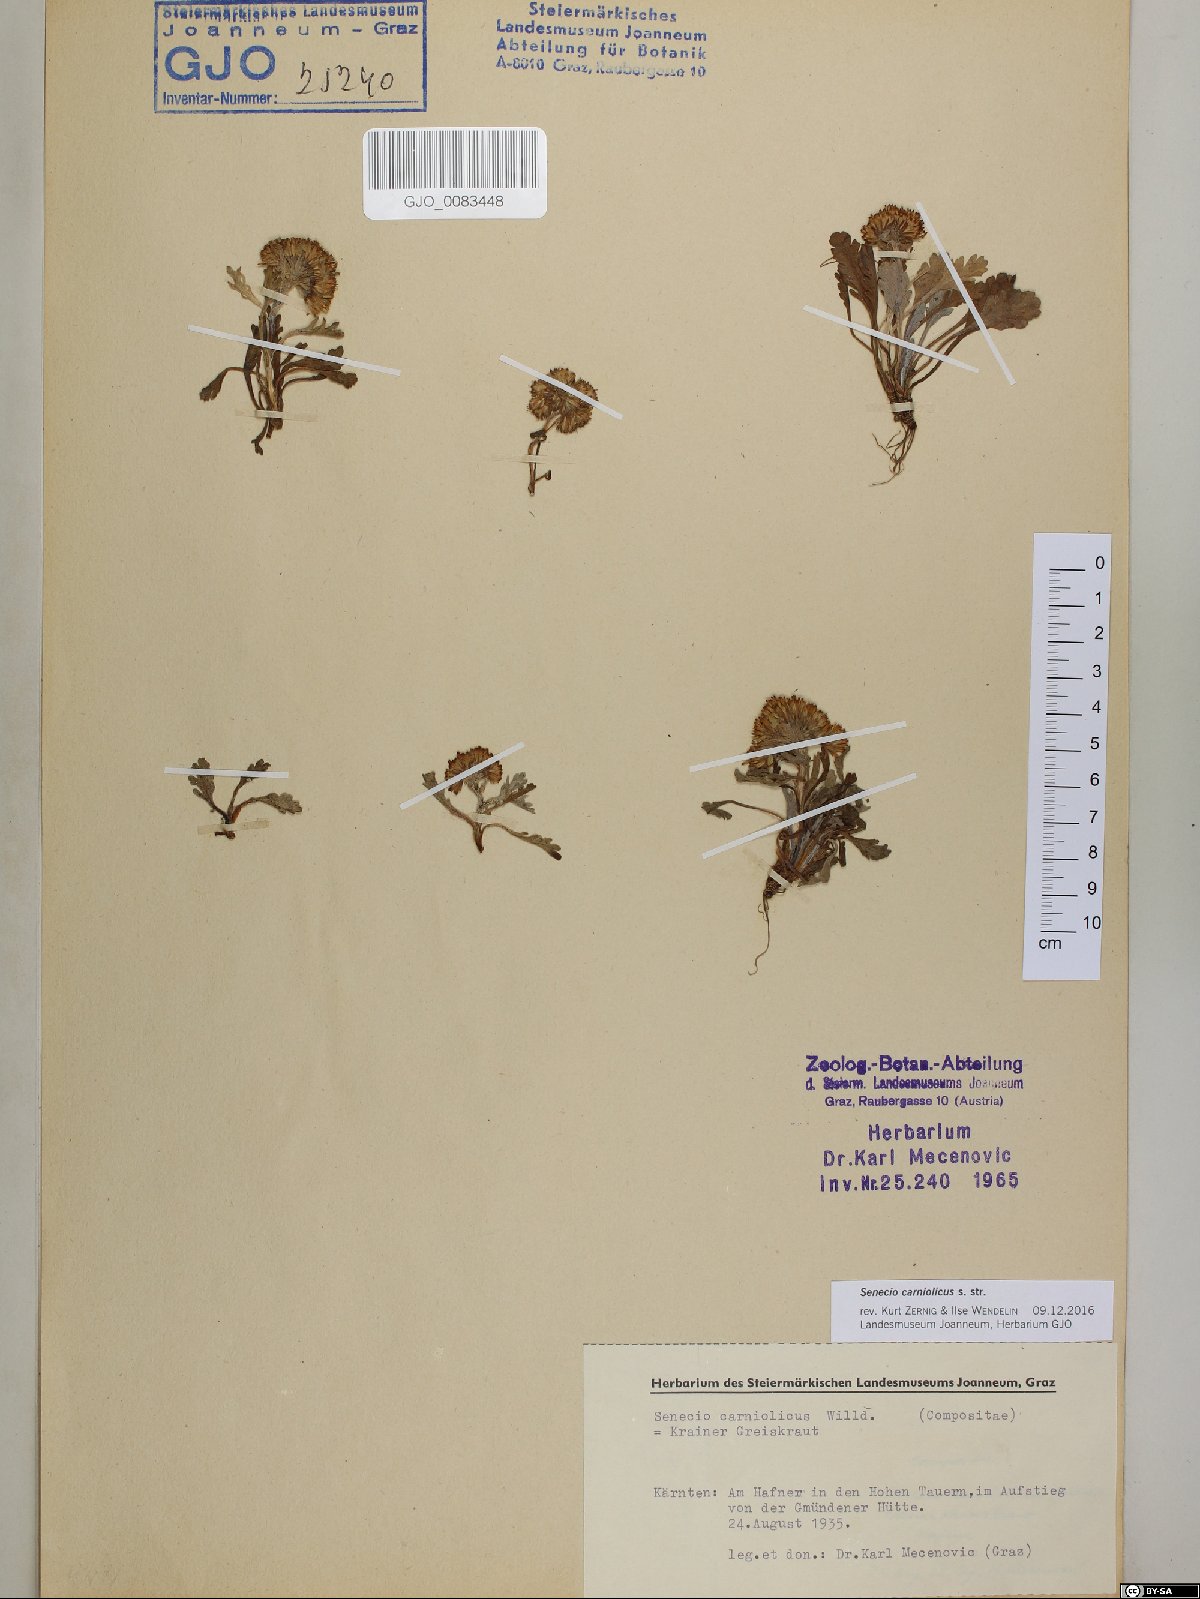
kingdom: Plantae
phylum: Tracheophyta
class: Magnoliopsida
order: Asterales
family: Asteraceae
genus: Jacobaea
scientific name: Jacobaea carniolica
